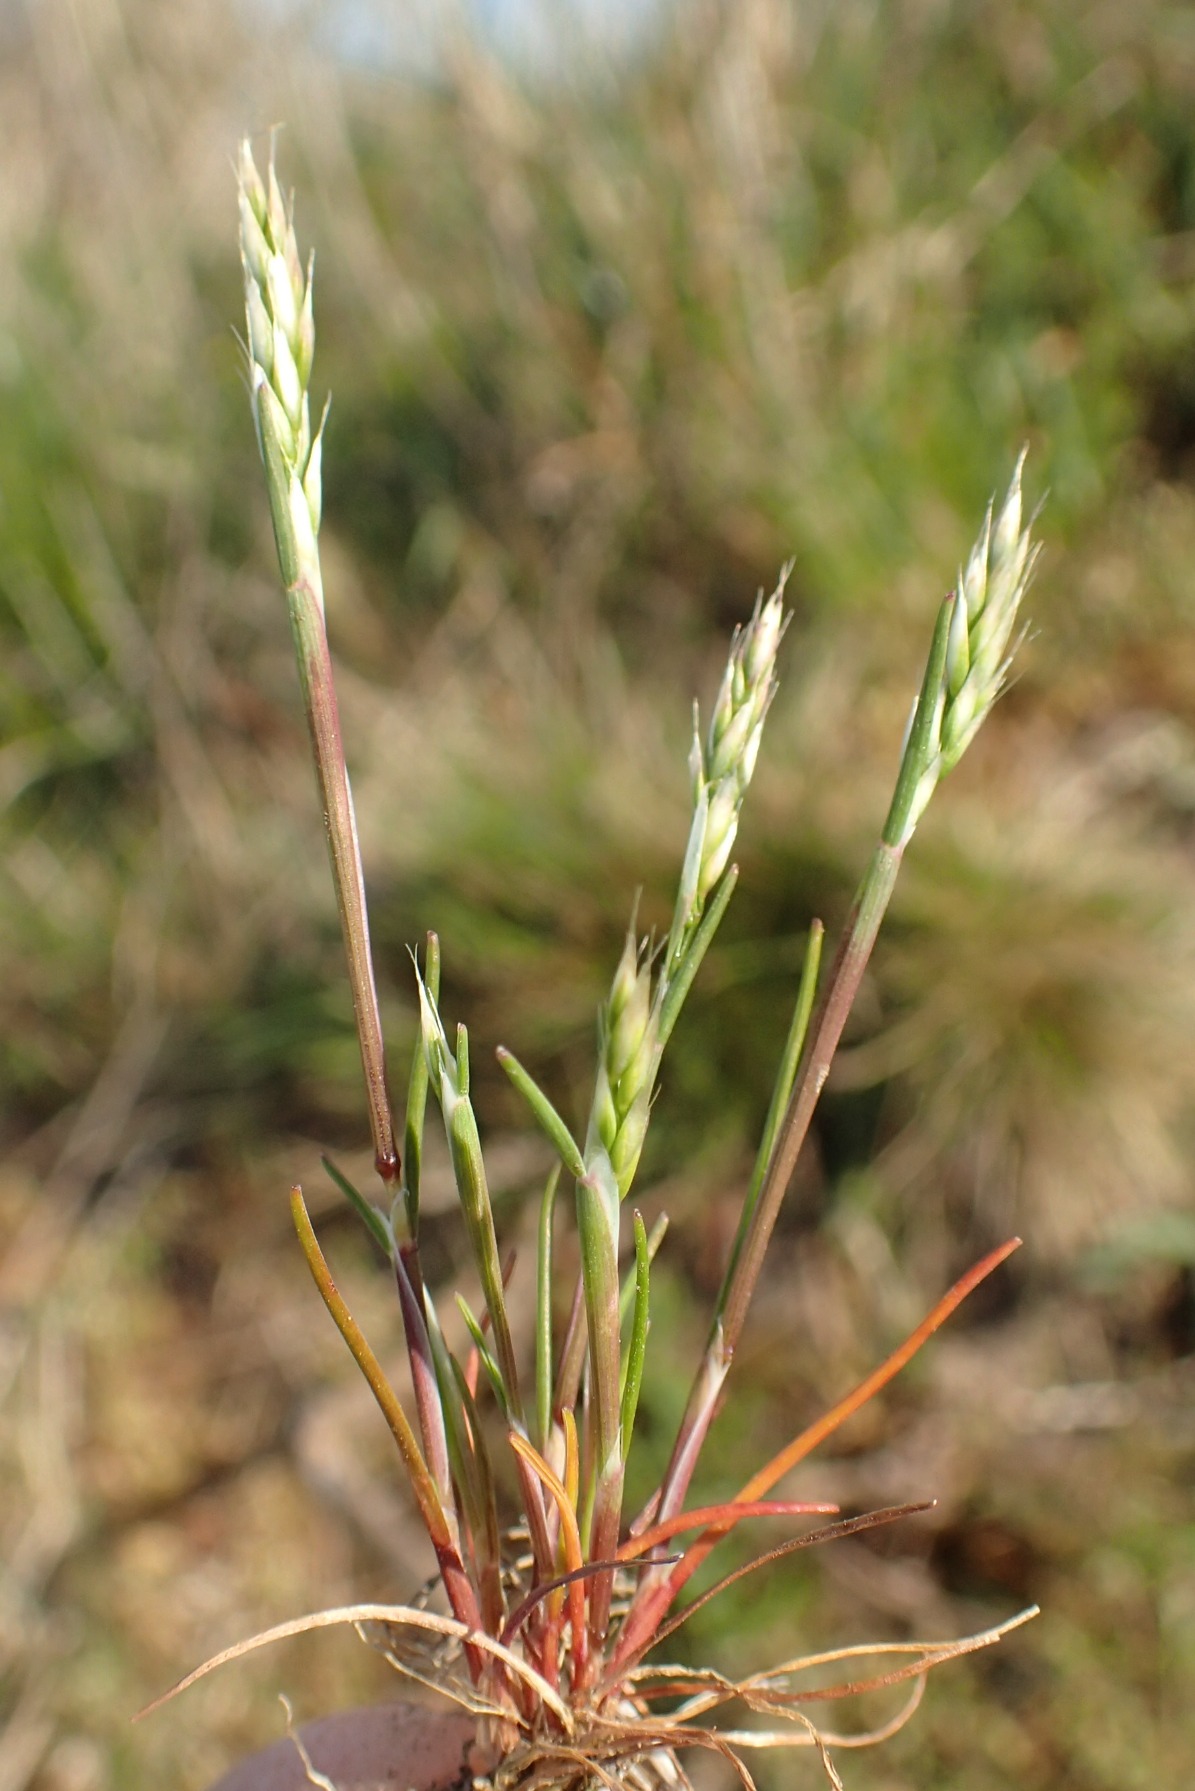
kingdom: Plantae
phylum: Tracheophyta
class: Liliopsida
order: Poales
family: Poaceae
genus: Aira
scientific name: Aira praecox
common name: Tidlig dværgbunke
